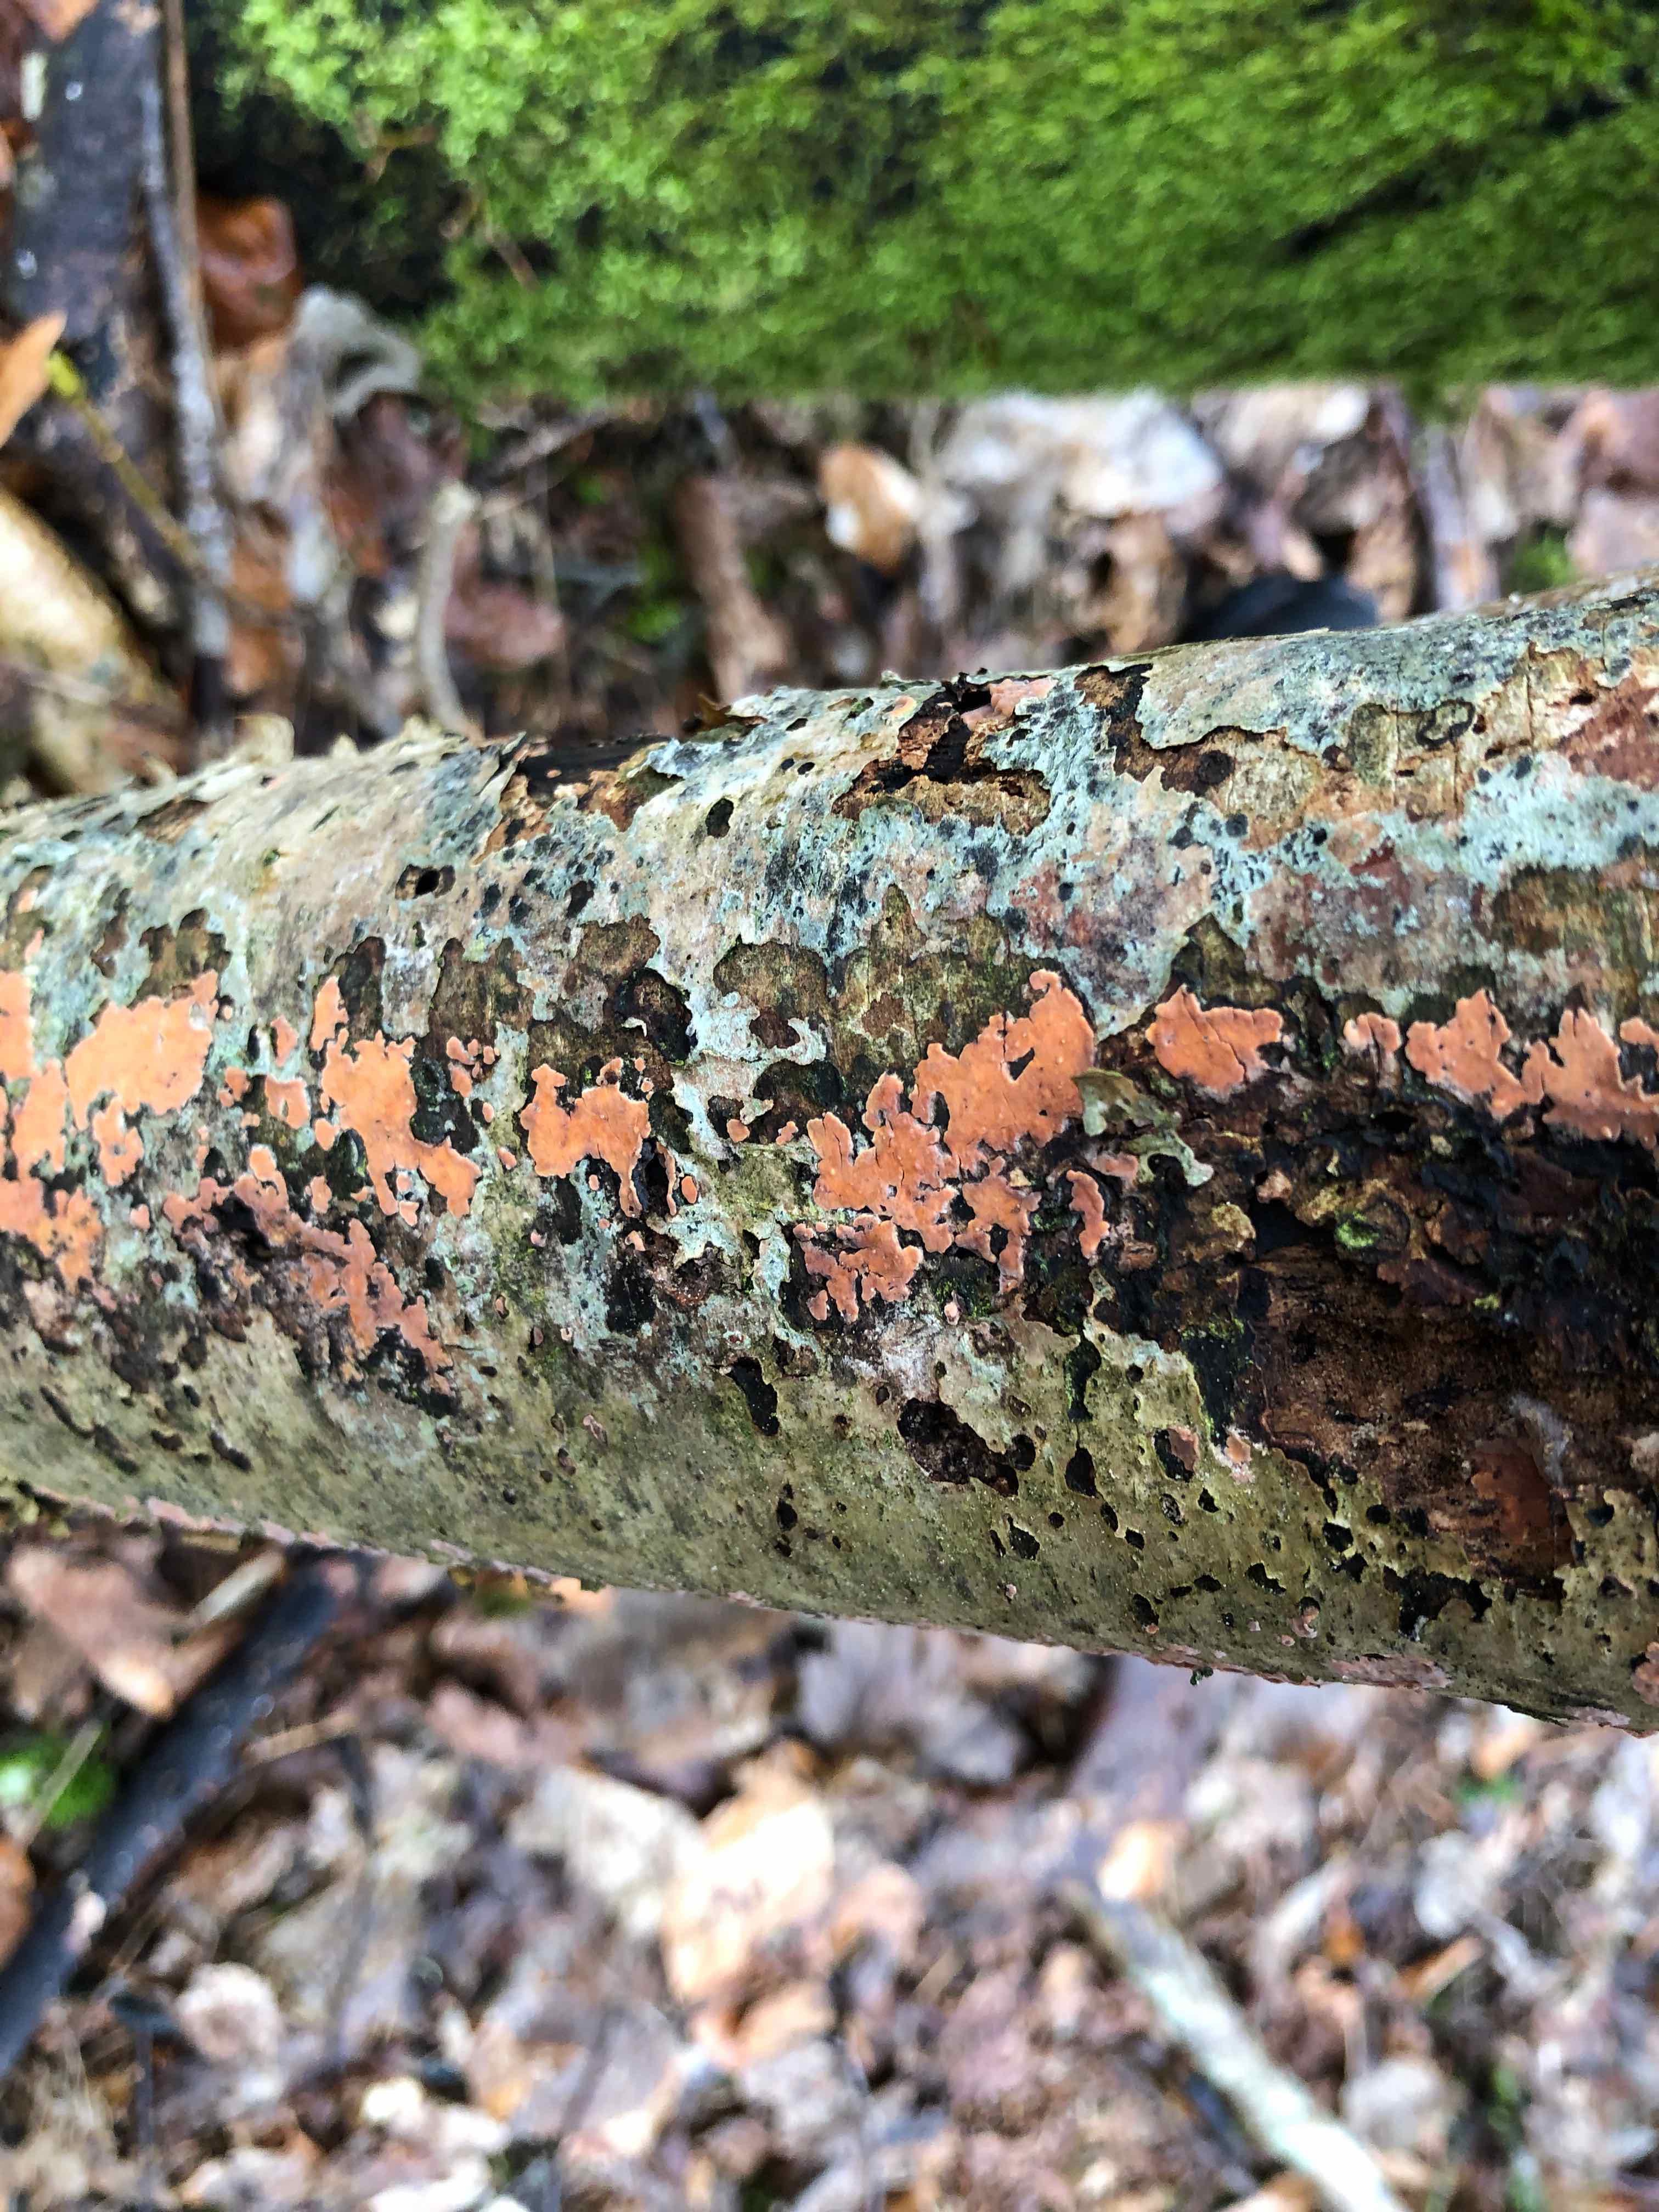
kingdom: Fungi
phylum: Basidiomycota
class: Agaricomycetes
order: Russulales
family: Peniophoraceae
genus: Peniophora
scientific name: Peniophora incarnata
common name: laksefarvet voksskind
